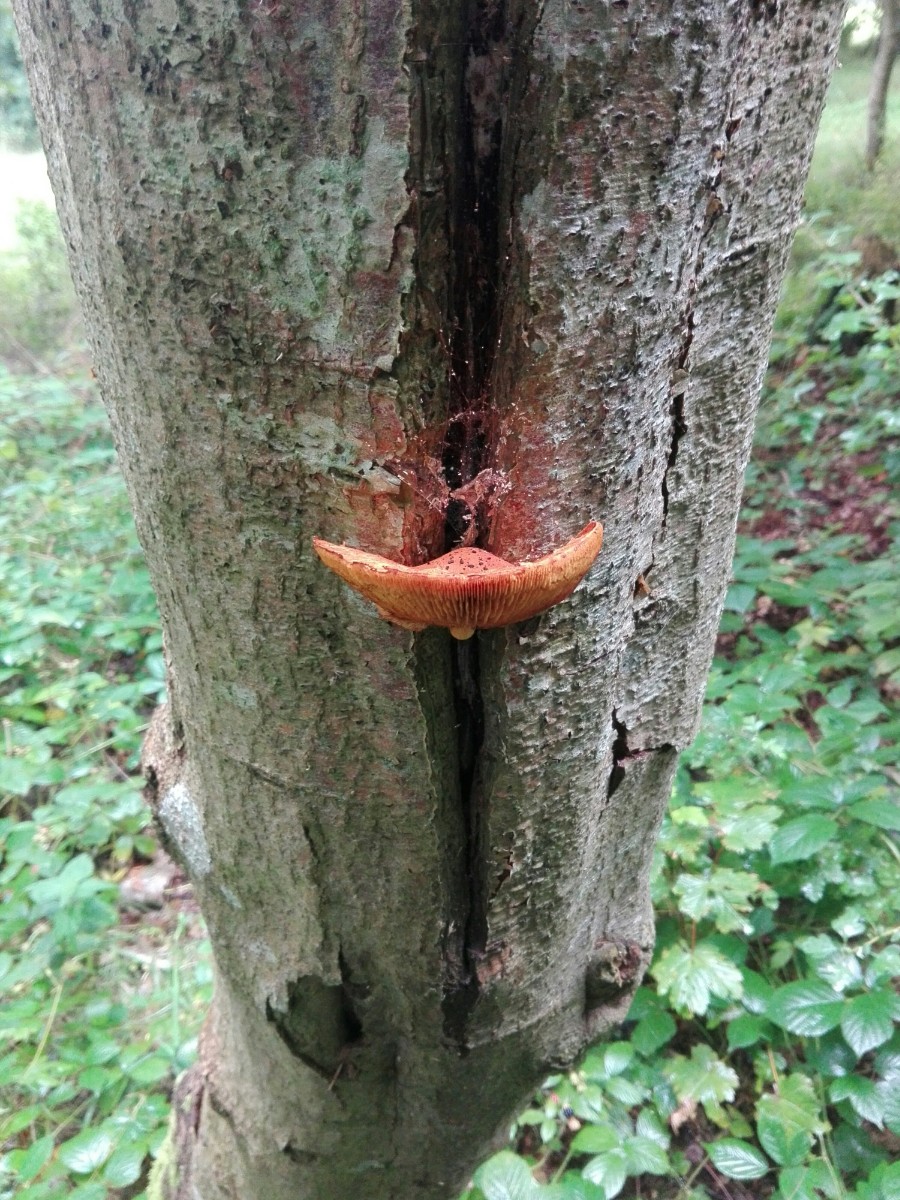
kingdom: Fungi
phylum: Basidiomycota
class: Agaricomycetes
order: Agaricales
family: Strophariaceae
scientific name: Strophariaceae
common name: bredbladfamilien
